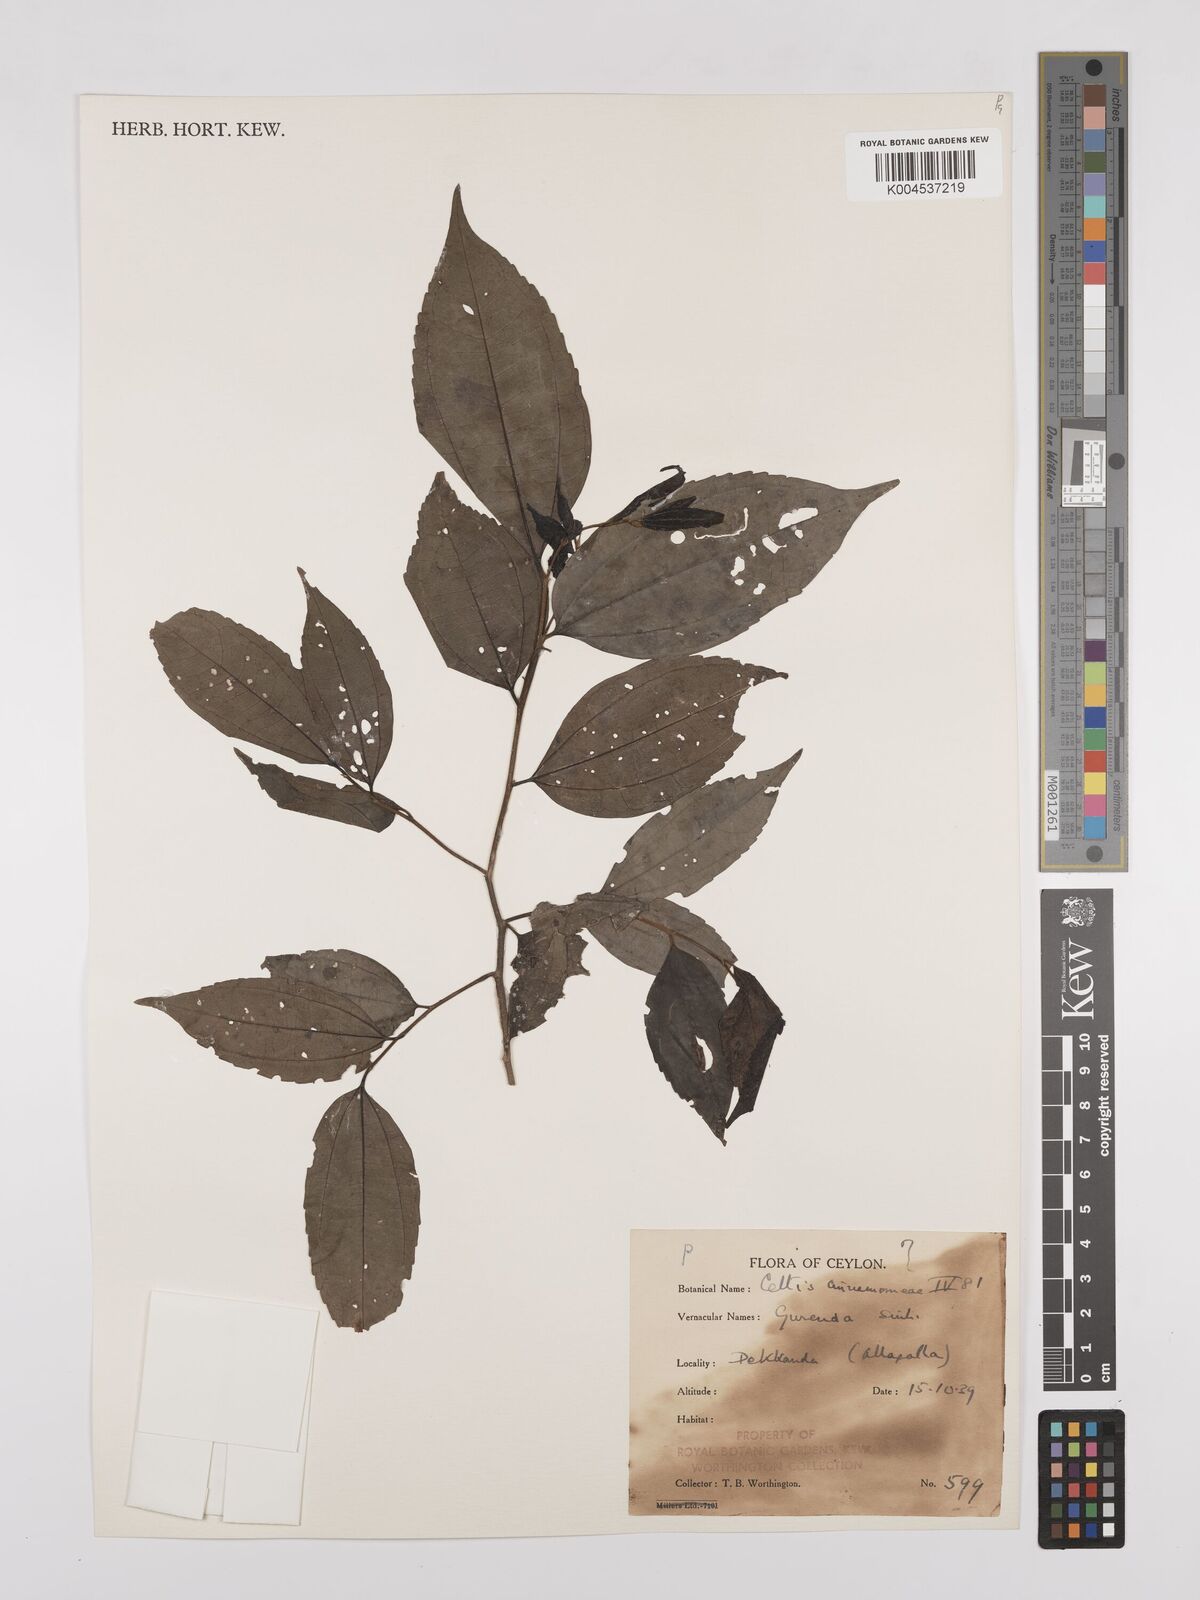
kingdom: Plantae
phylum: Tracheophyta
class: Magnoliopsida
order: Rosales
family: Cannabaceae
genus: Celtis
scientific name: Celtis timorensis
